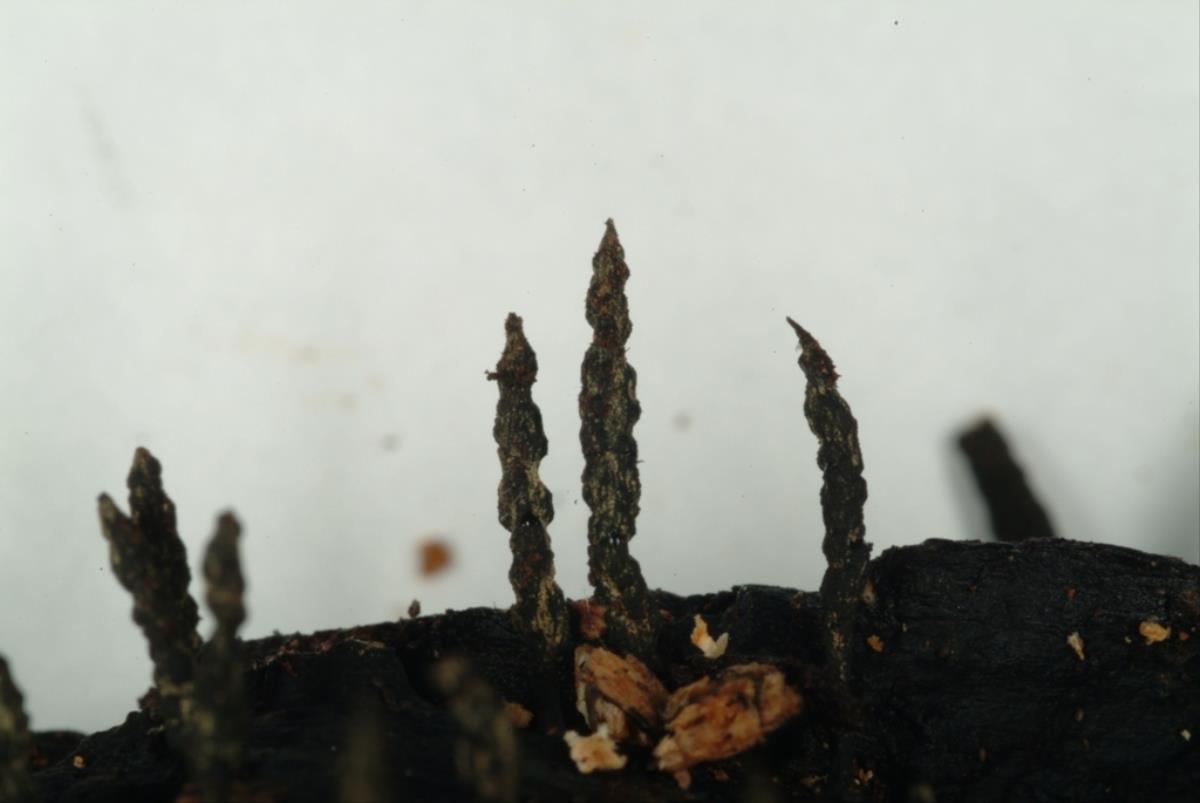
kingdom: Fungi
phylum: Ascomycota
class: Sordariomycetes
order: Xylariales
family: Xylariaceae
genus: Xylaria
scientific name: Xylaria
